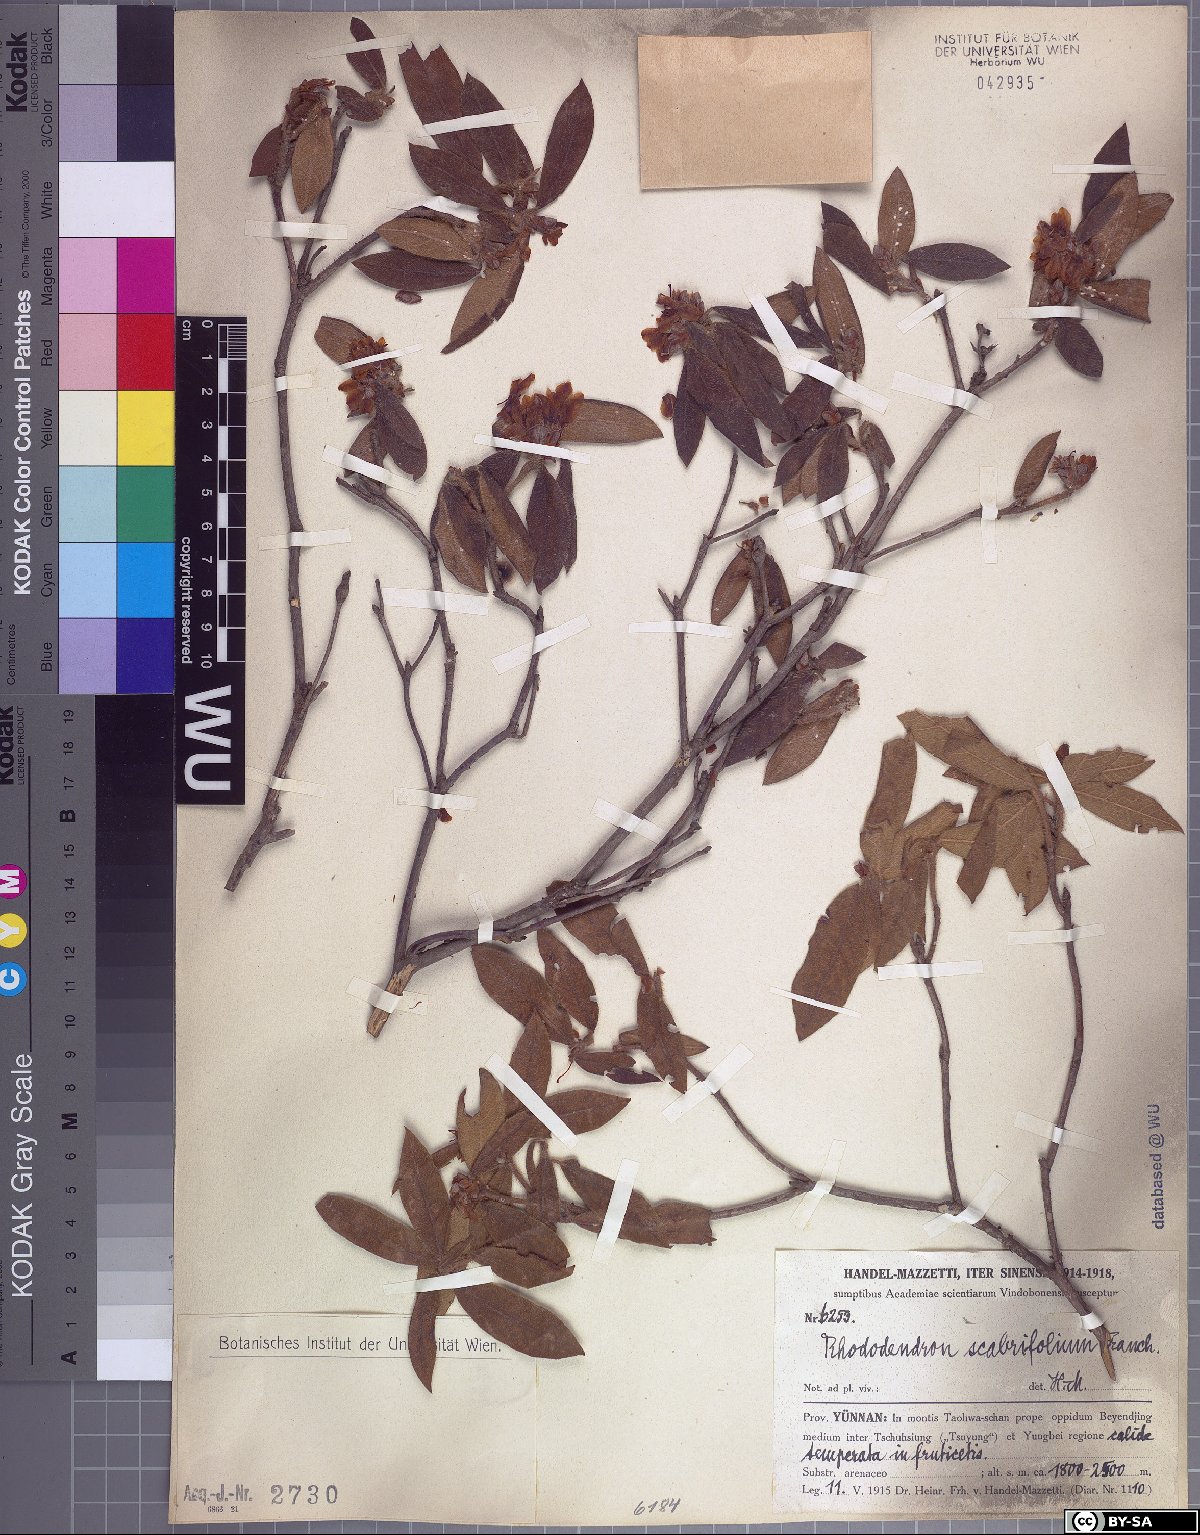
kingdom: Plantae
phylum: Tracheophyta
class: Magnoliopsida
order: Ericales
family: Ericaceae
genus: Rhododendron
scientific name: Rhododendron scabrifolium
